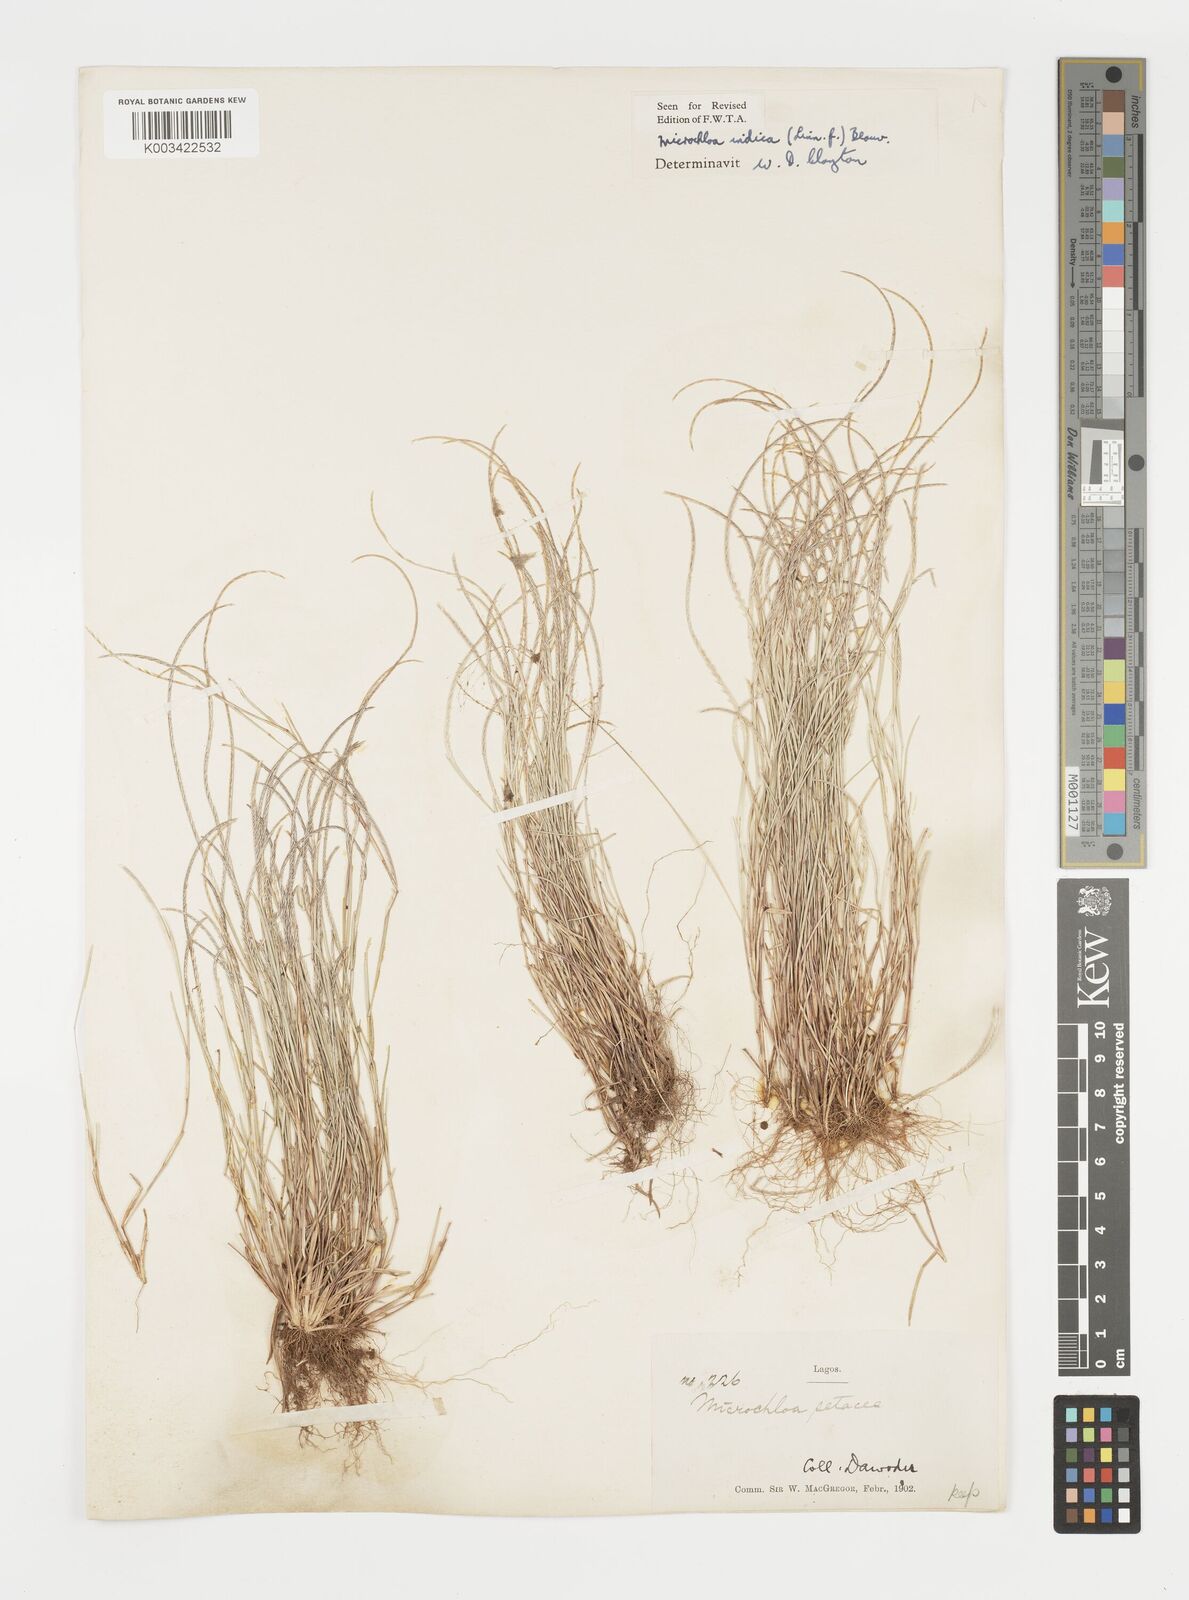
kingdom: Plantae
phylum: Tracheophyta
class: Liliopsida
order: Poales
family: Poaceae
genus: Microchloa
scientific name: Microchloa indica
